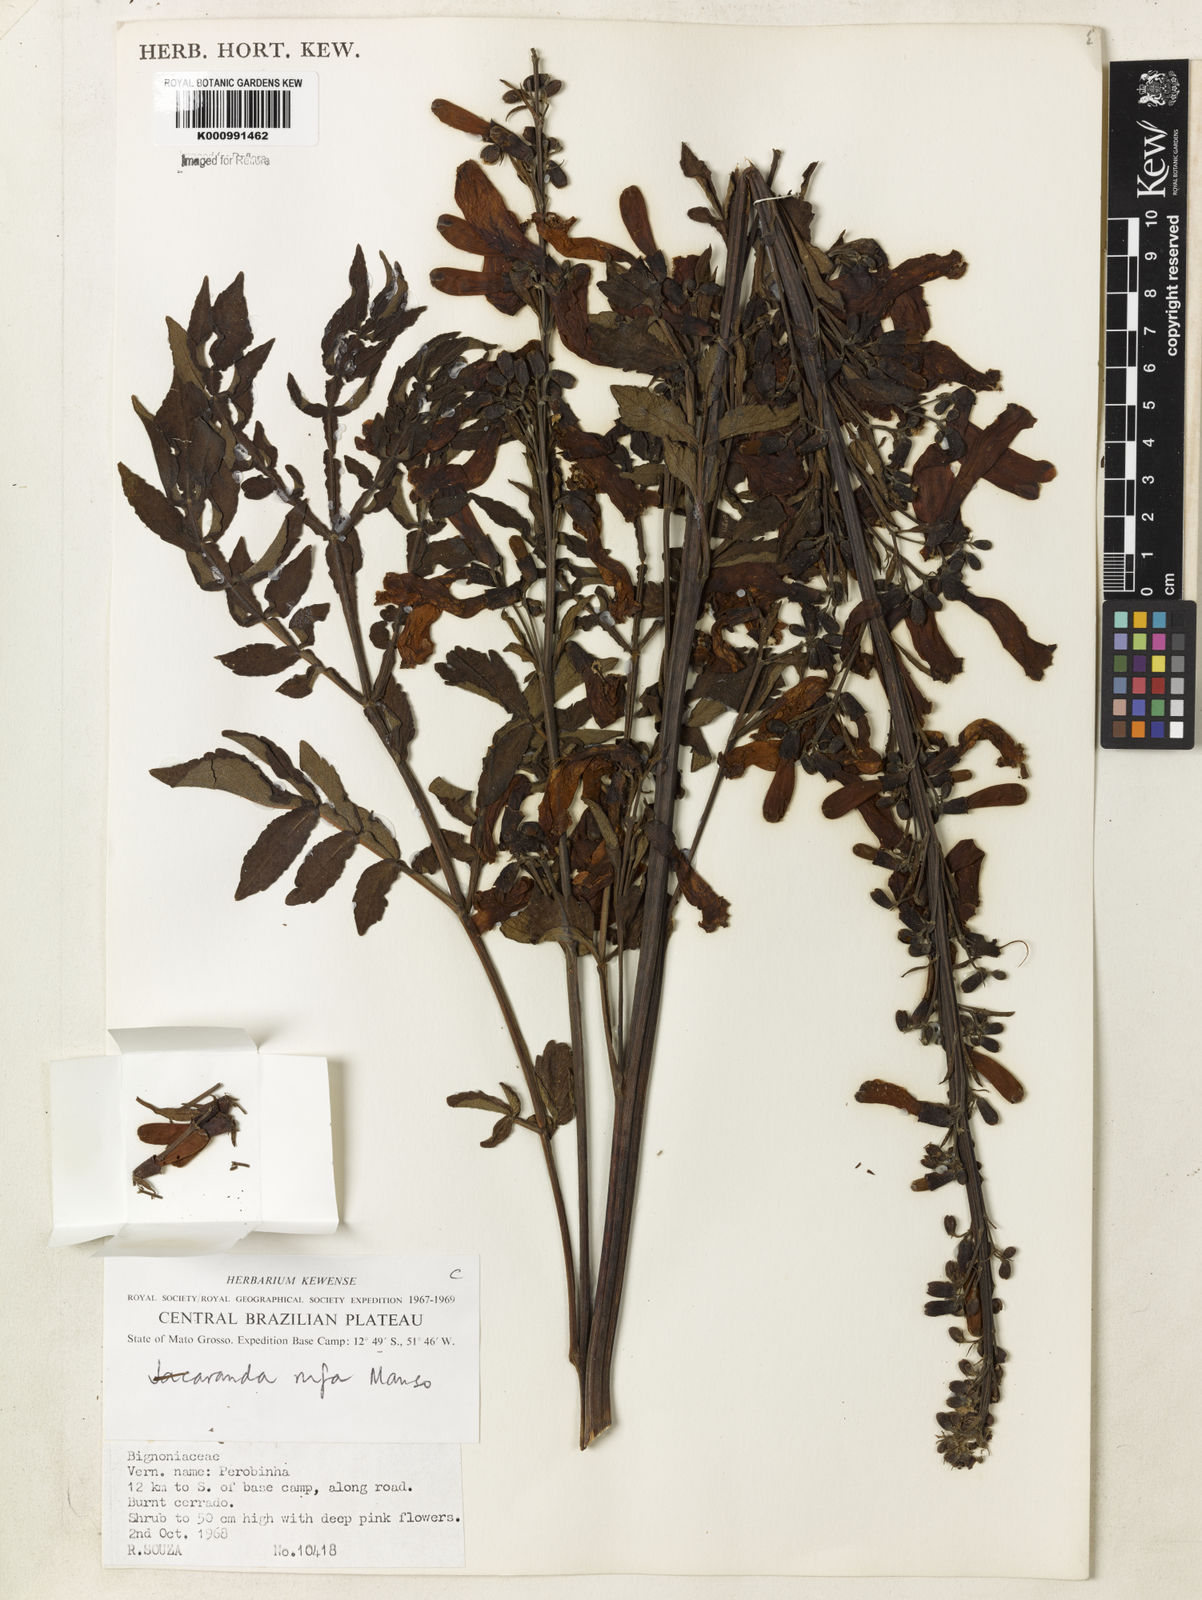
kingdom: Plantae
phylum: Tracheophyta
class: Magnoliopsida
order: Lamiales
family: Bignoniaceae
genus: Jacaranda
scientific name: Jacaranda rufa
